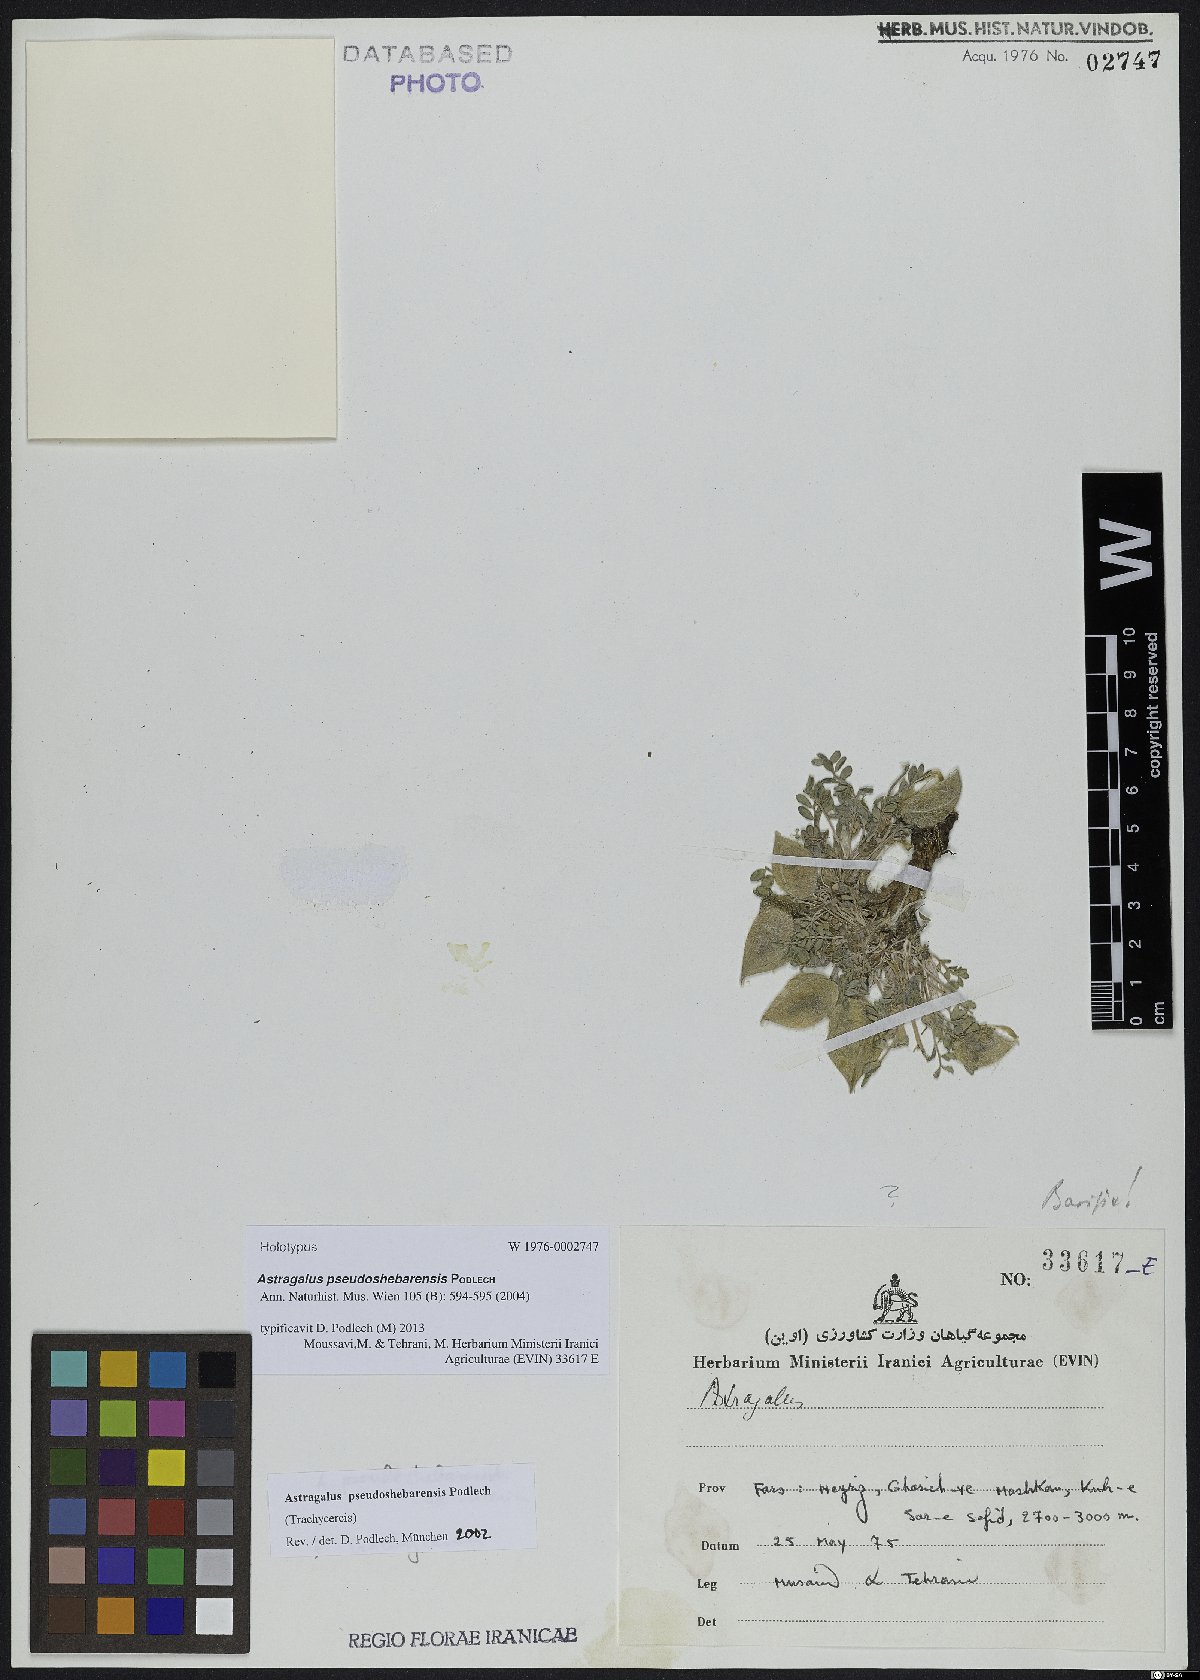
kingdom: Plantae
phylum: Tracheophyta
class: Magnoliopsida
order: Fabales
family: Fabaceae
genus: Astragalus
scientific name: Astragalus pseudoshebarensis
